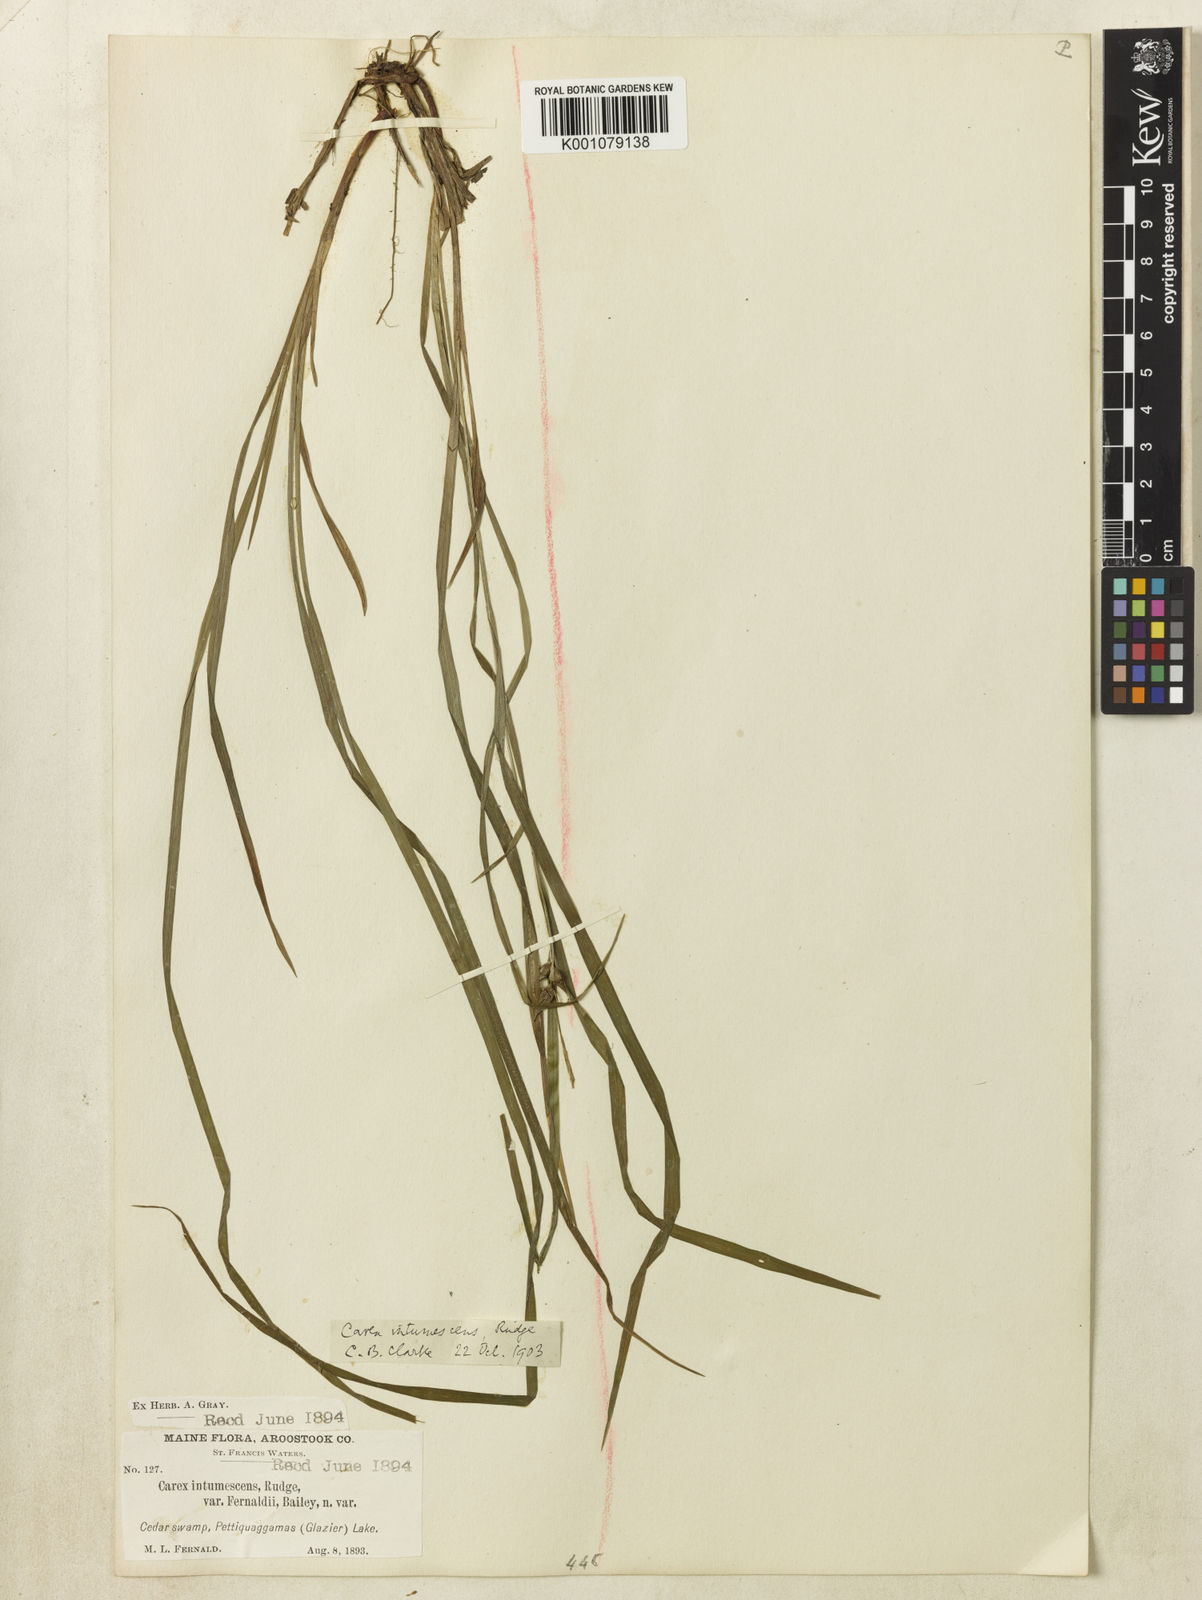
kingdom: Plantae
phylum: Tracheophyta
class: Liliopsida
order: Poales
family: Cyperaceae
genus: Carex
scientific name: Carex intumescens
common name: Greater bladder sedge
